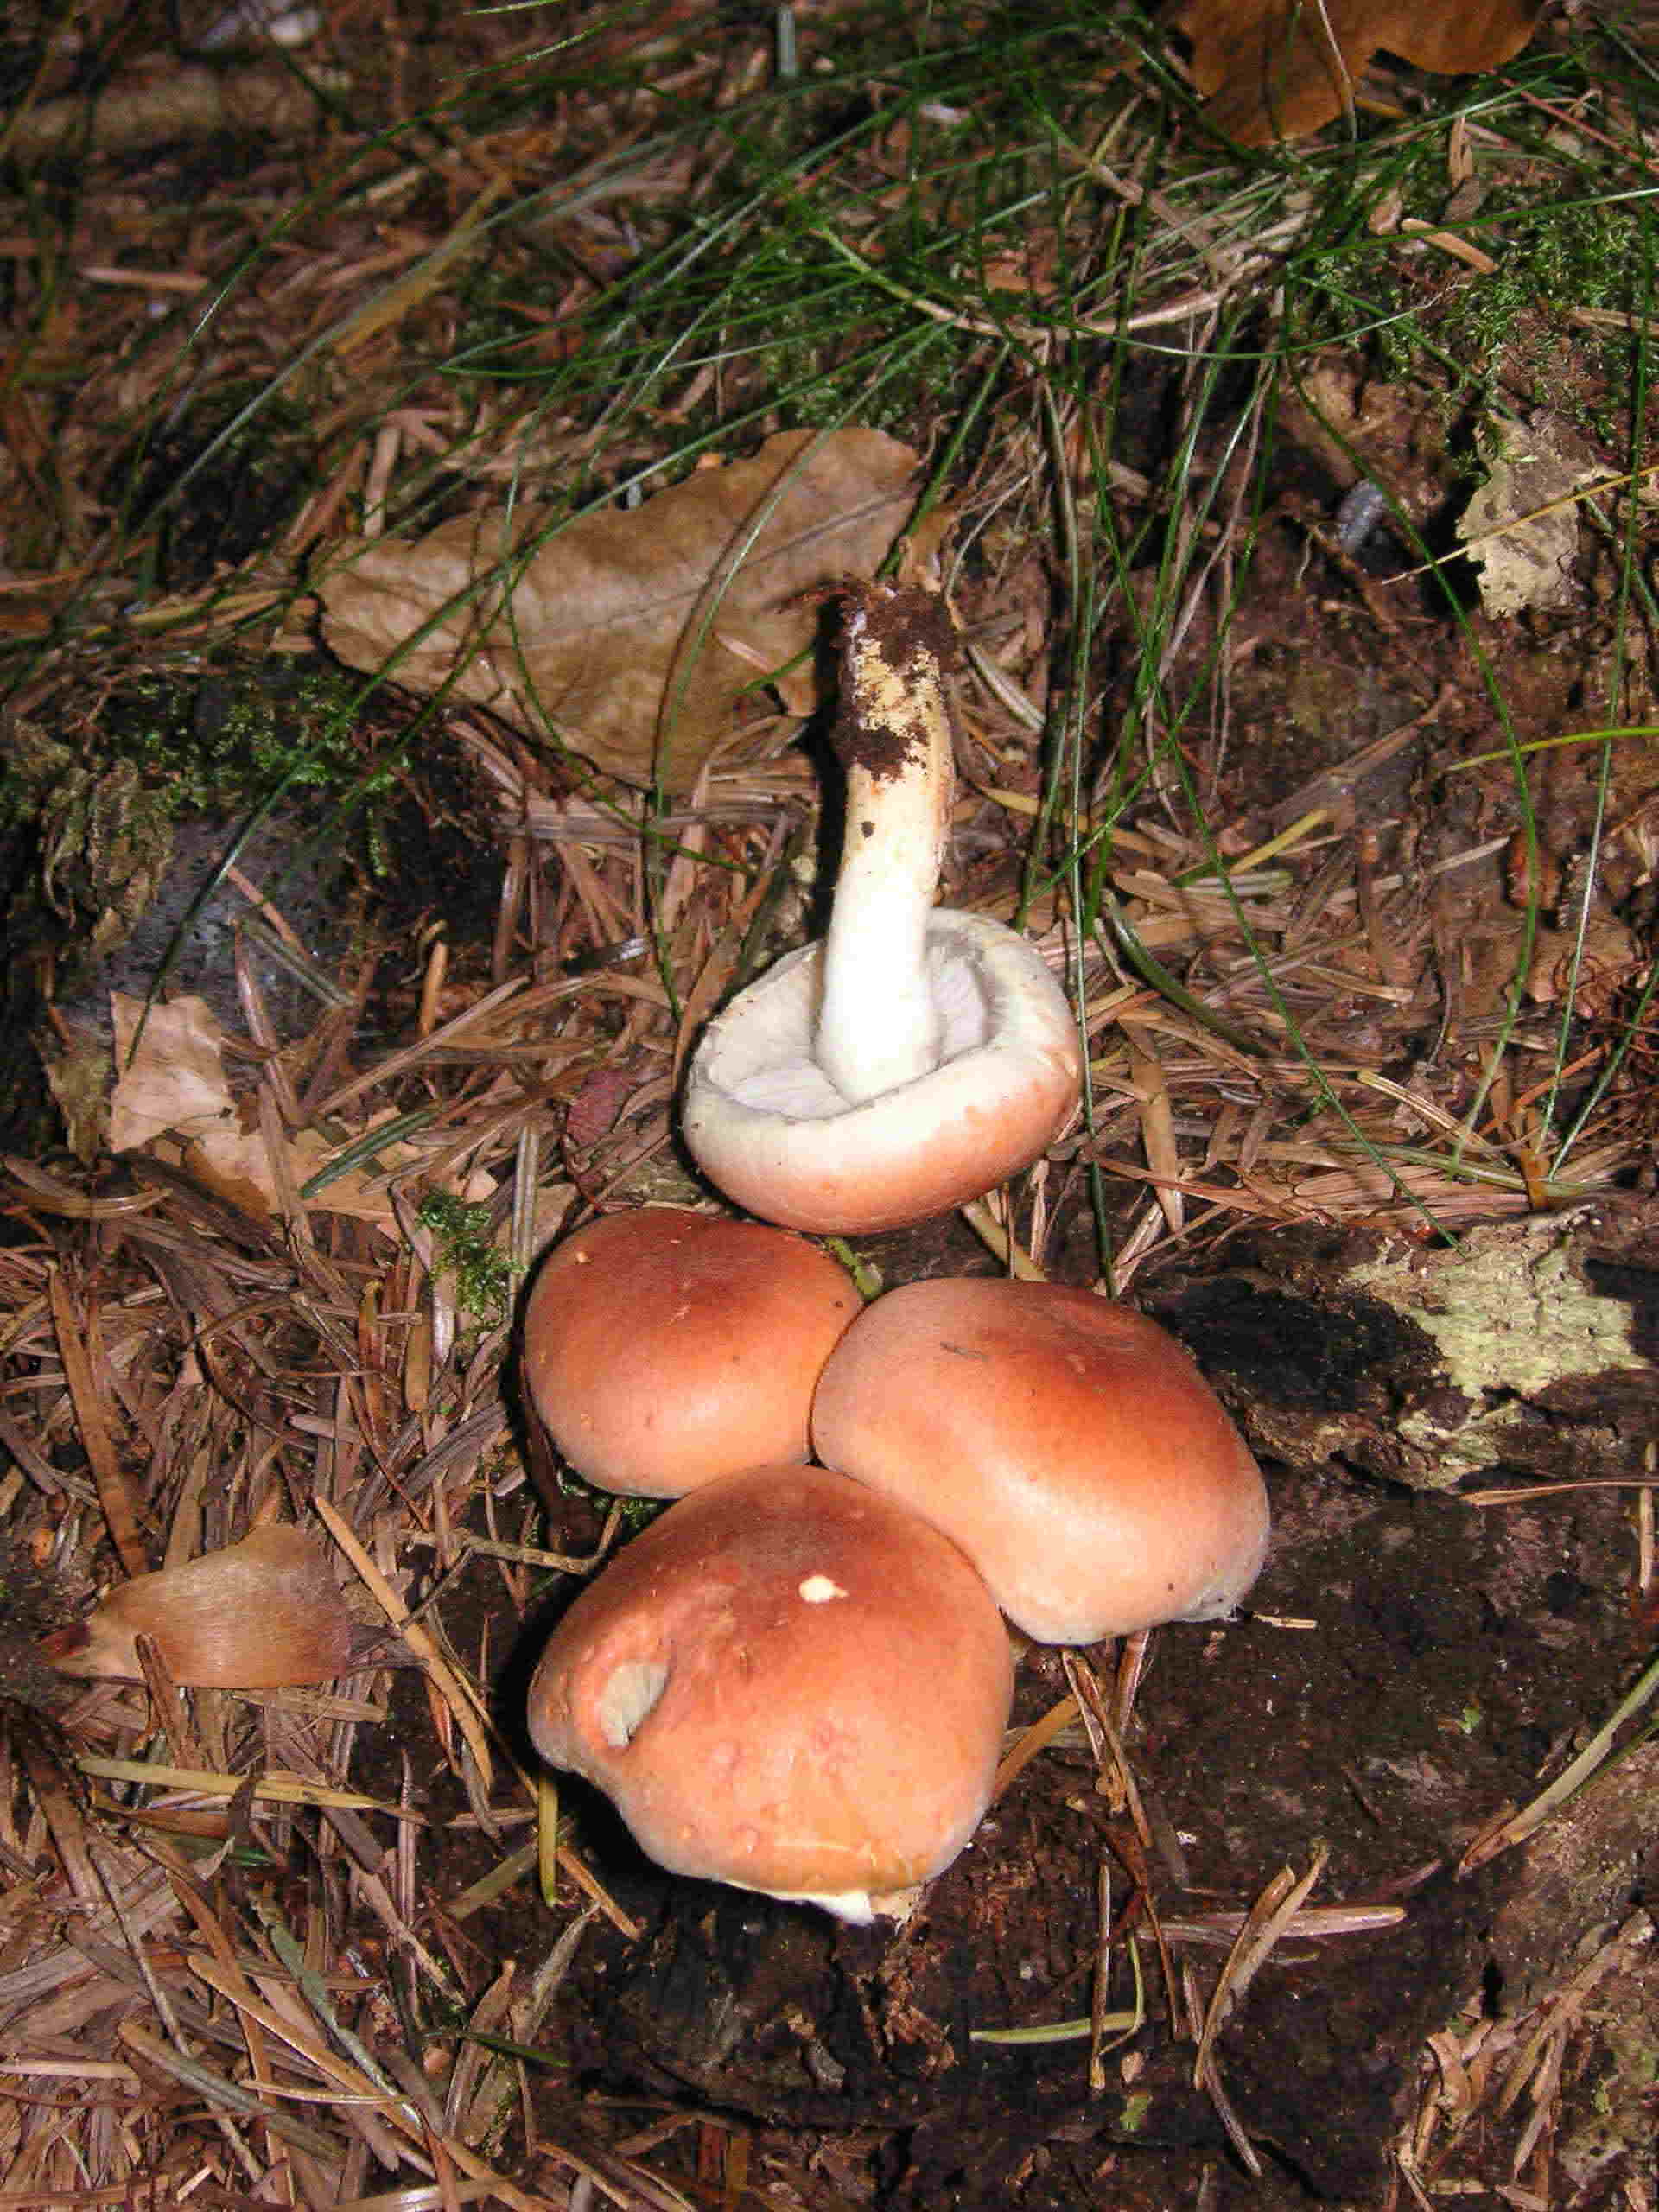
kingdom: Fungi
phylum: Basidiomycota
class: Agaricomycetes
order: Agaricales
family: Strophariaceae
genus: Hypholoma
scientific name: Hypholoma lateritium
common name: teglrød svovlhat
